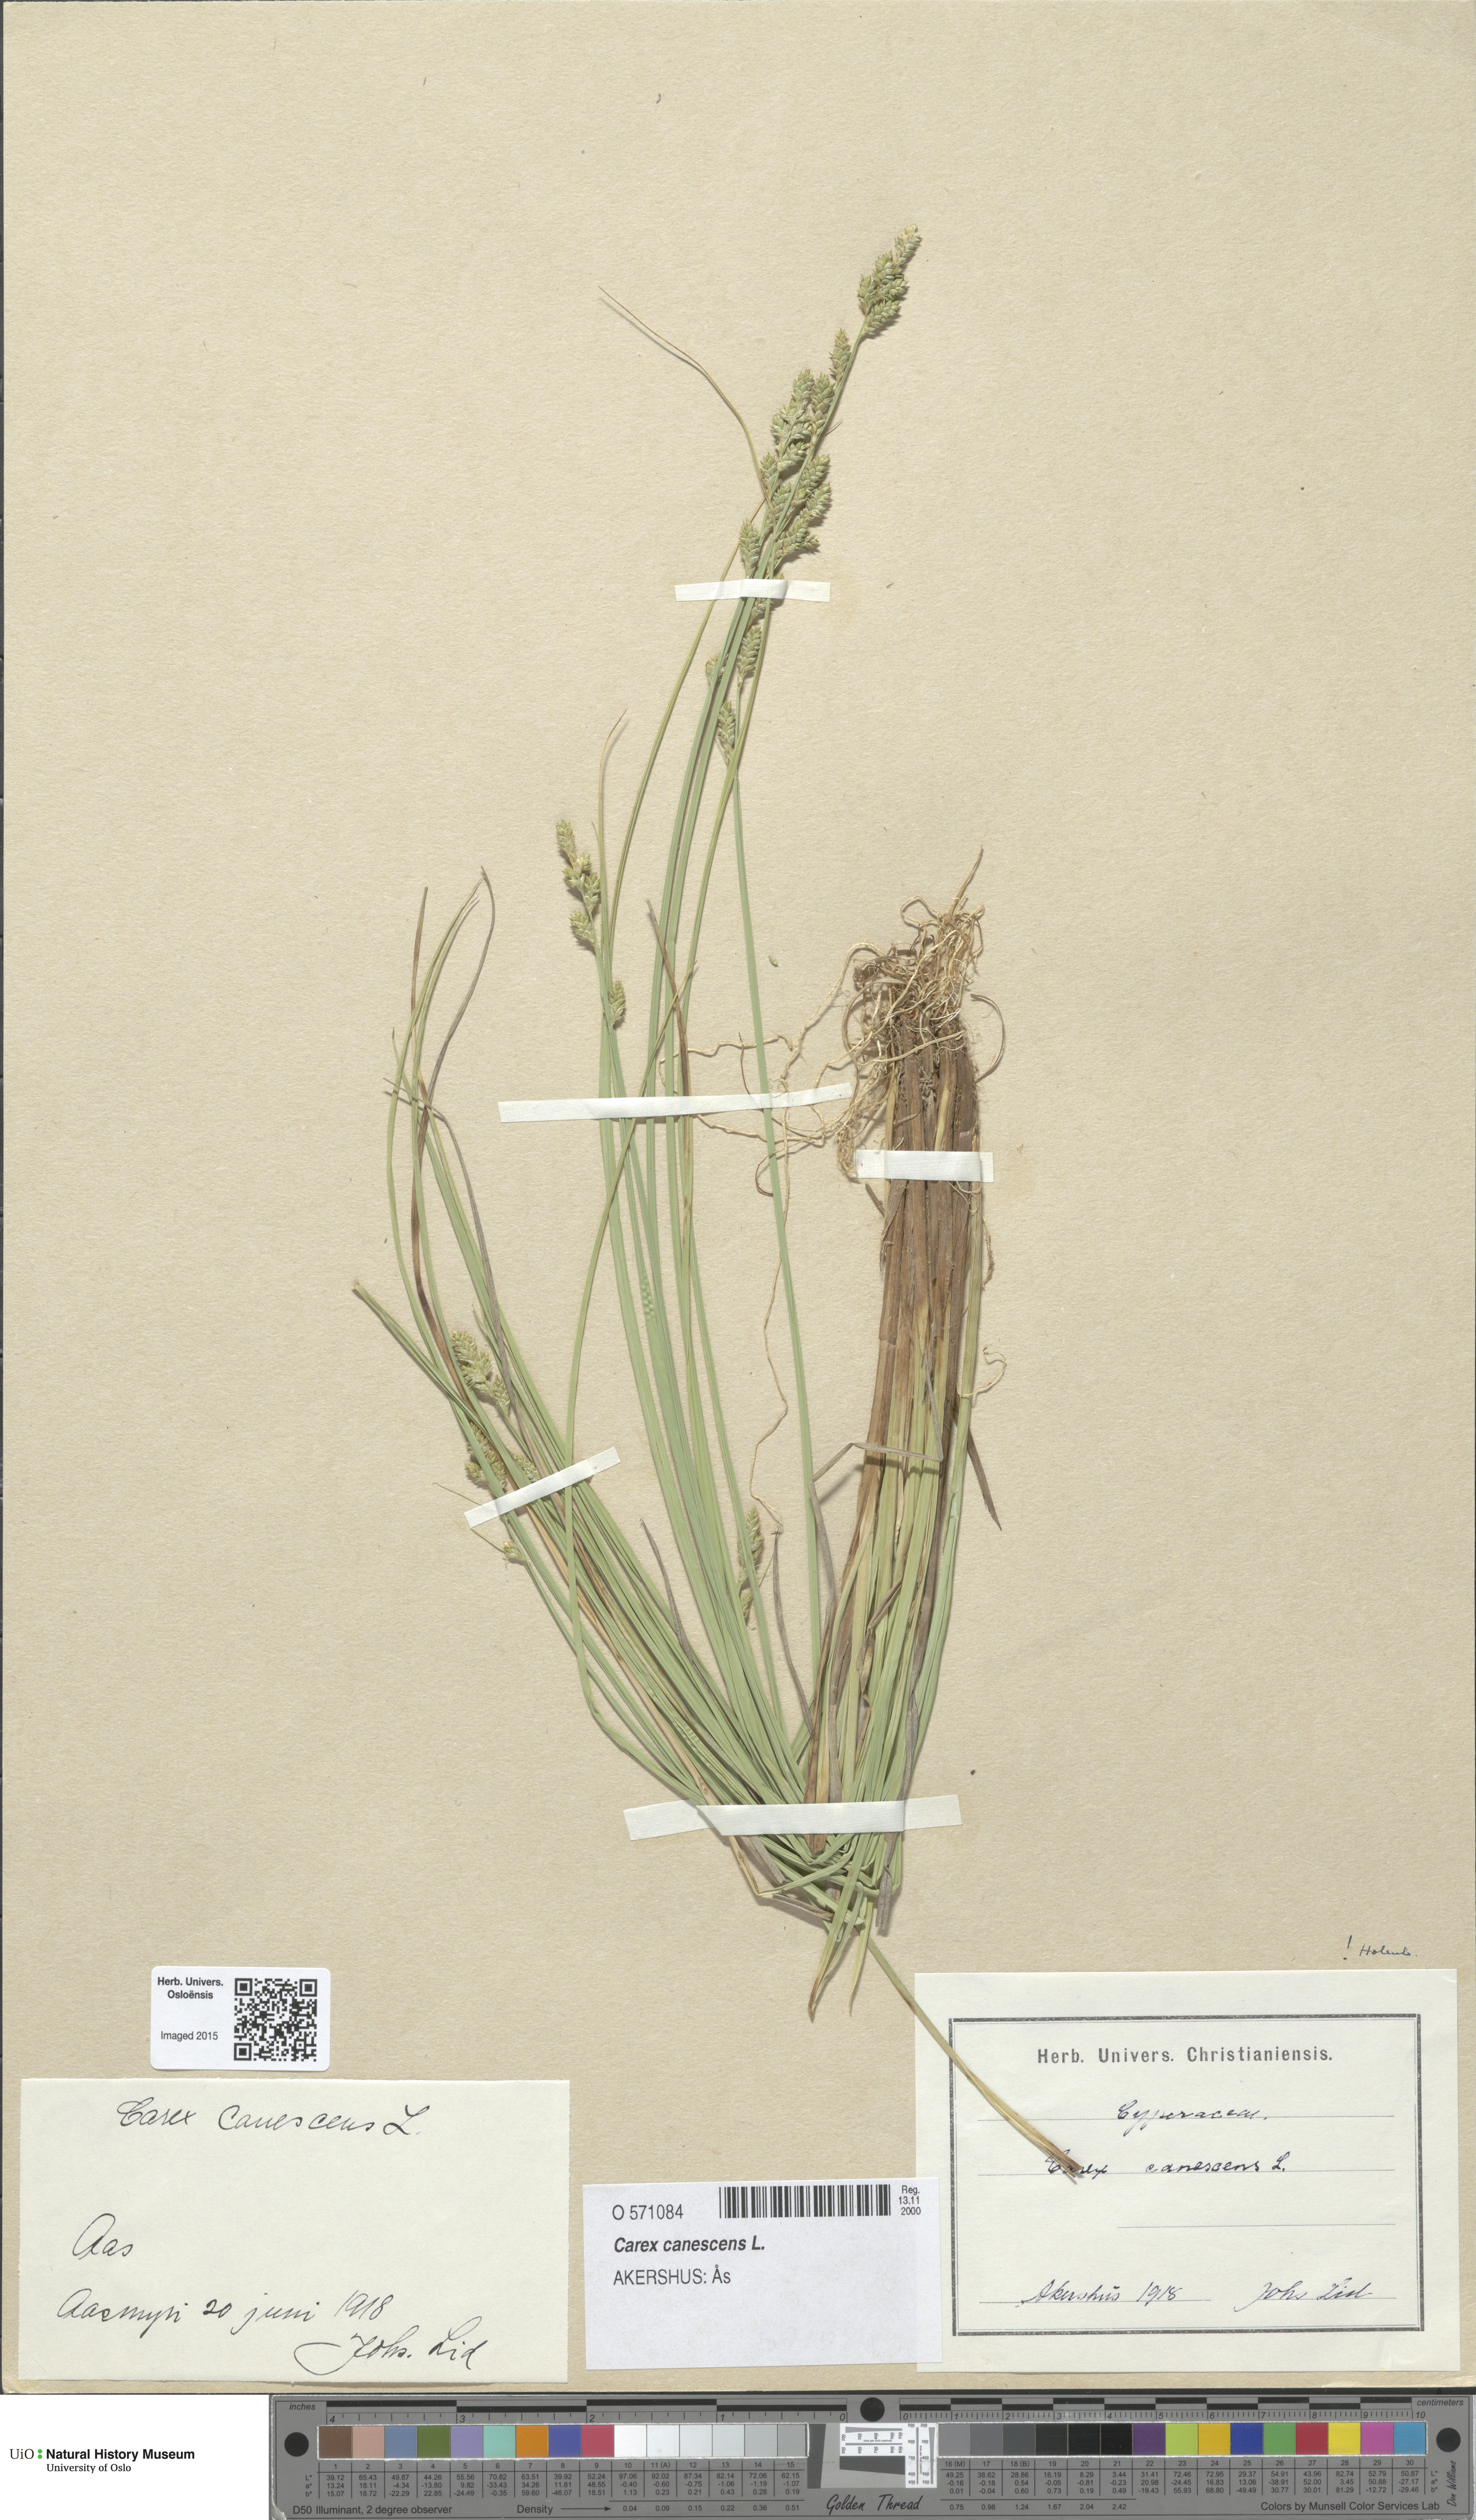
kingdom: Plantae
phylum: Tracheophyta
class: Liliopsida
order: Poales
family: Cyperaceae
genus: Carex
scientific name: Carex canescens
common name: White sedge
